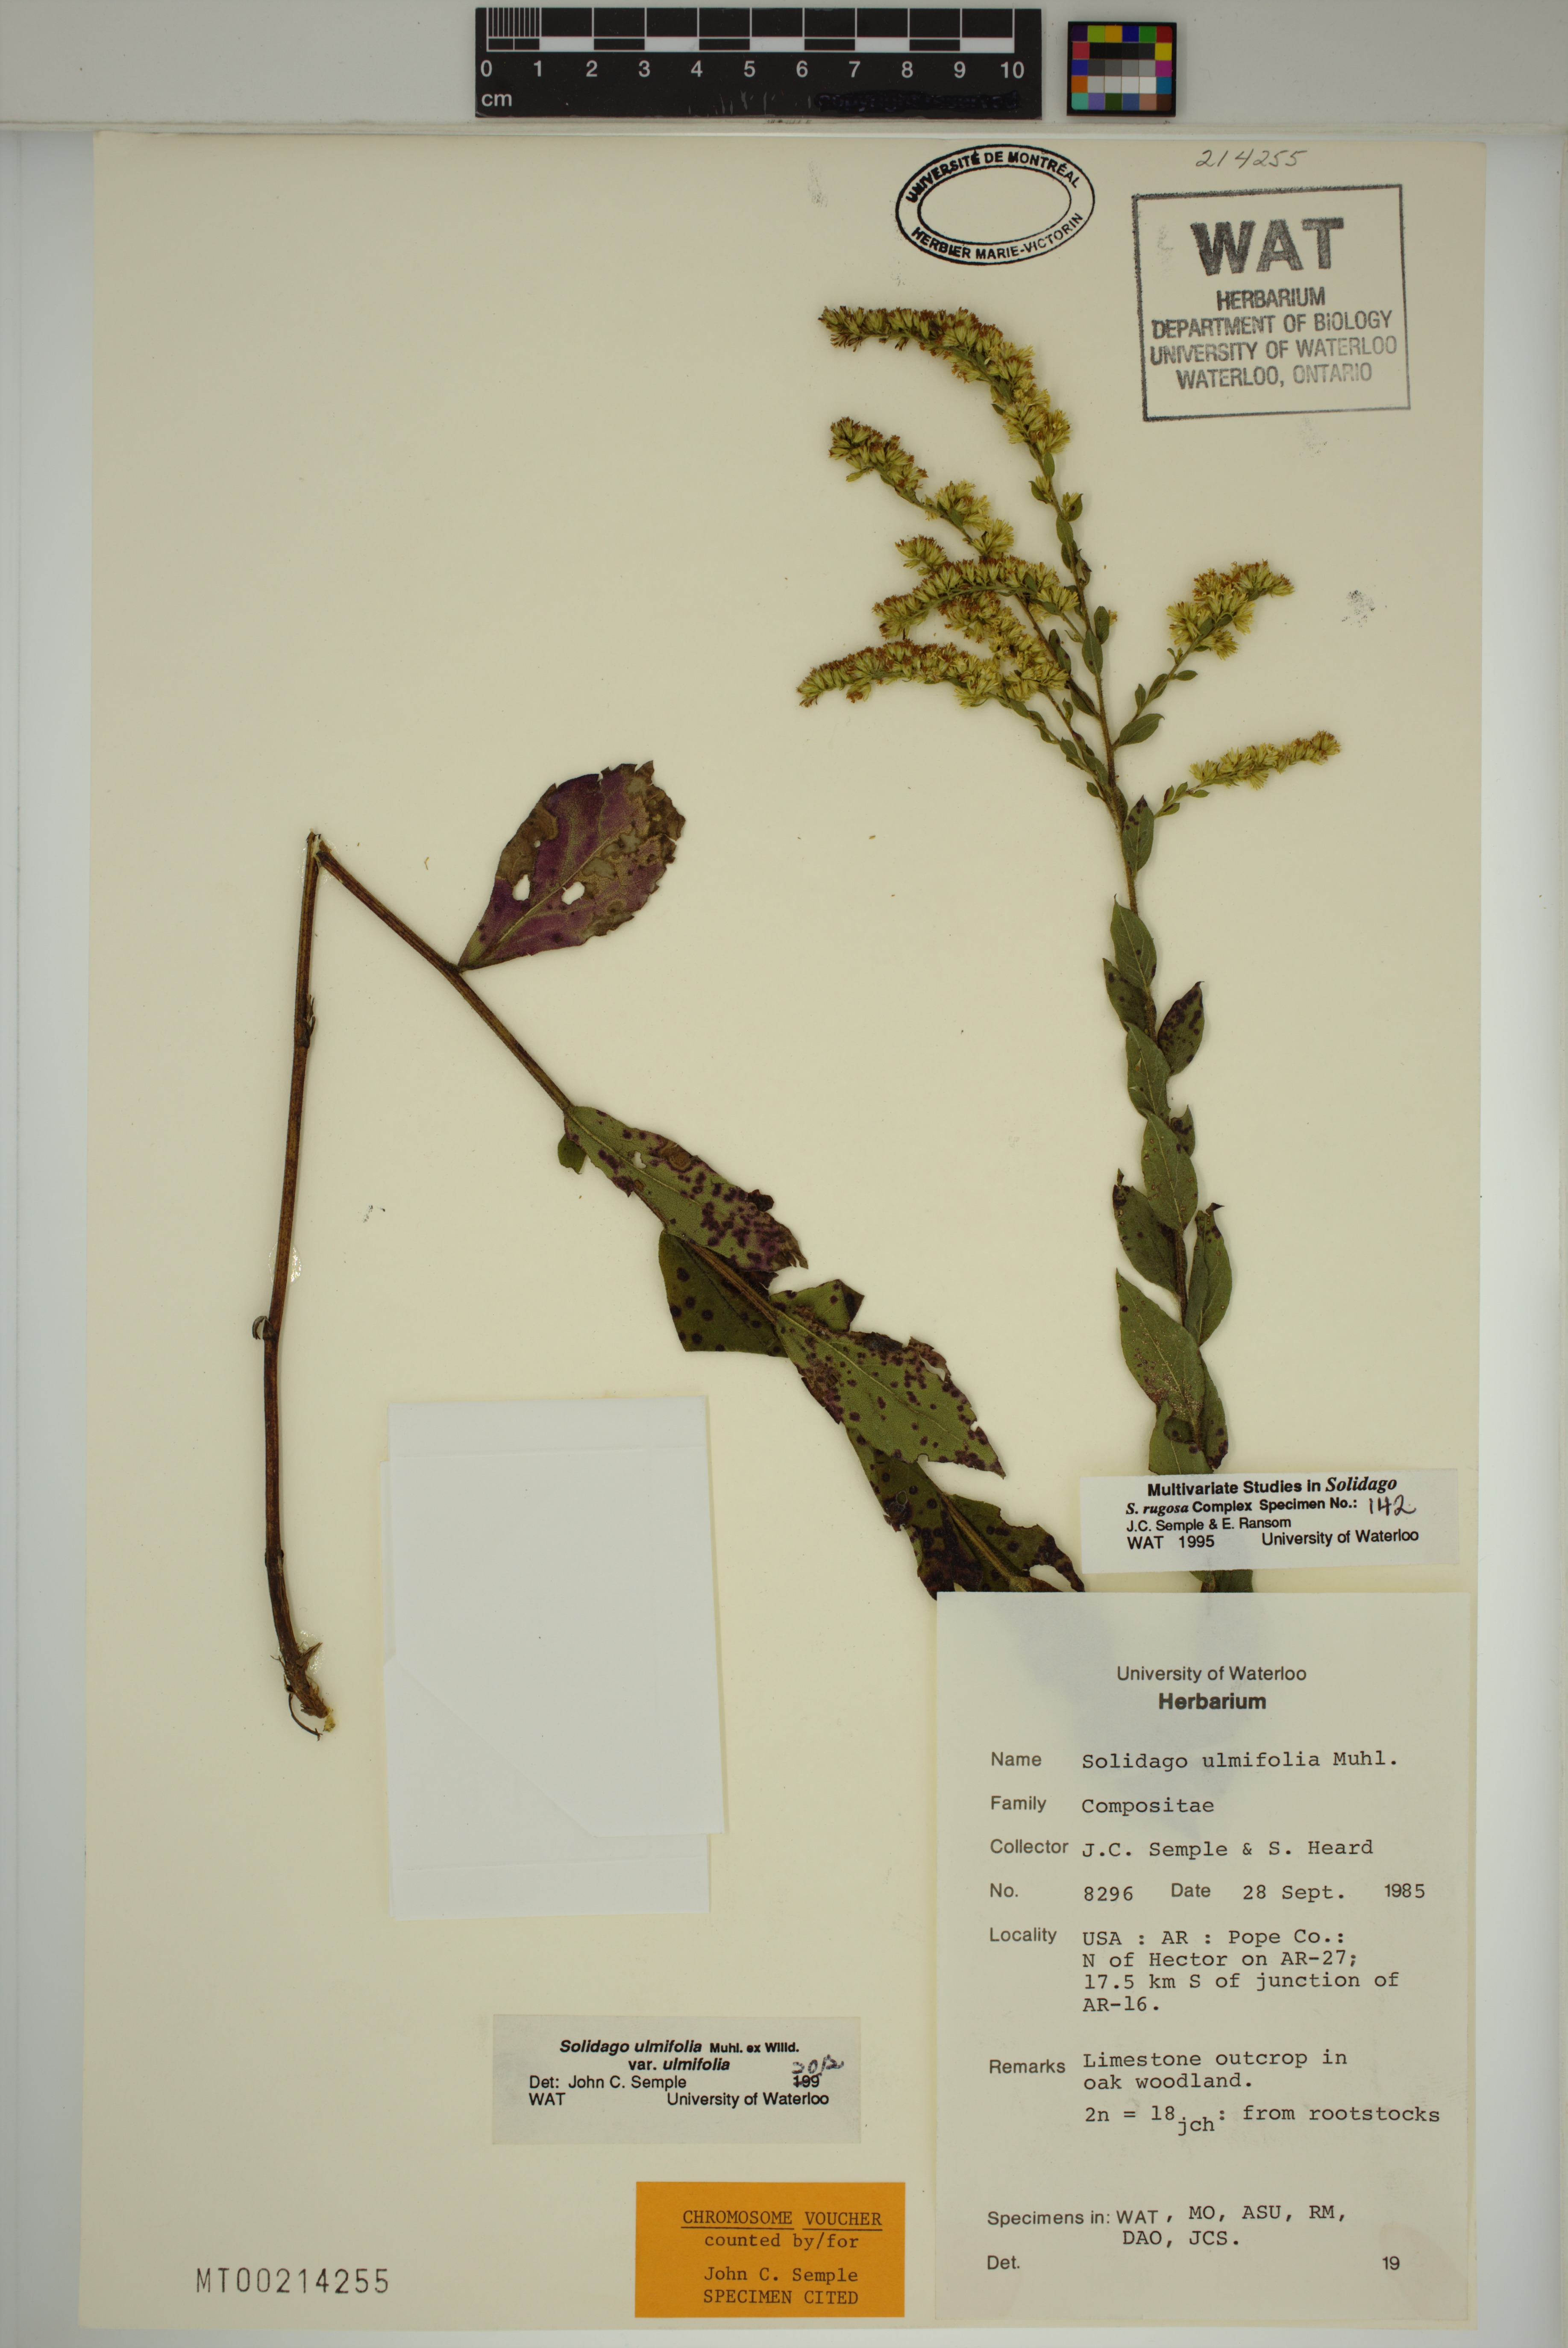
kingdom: Plantae
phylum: Tracheophyta
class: Magnoliopsida
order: Asterales
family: Asteraceae
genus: Solidago
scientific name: Solidago rugosa
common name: Rough-stemmed goldenrod
